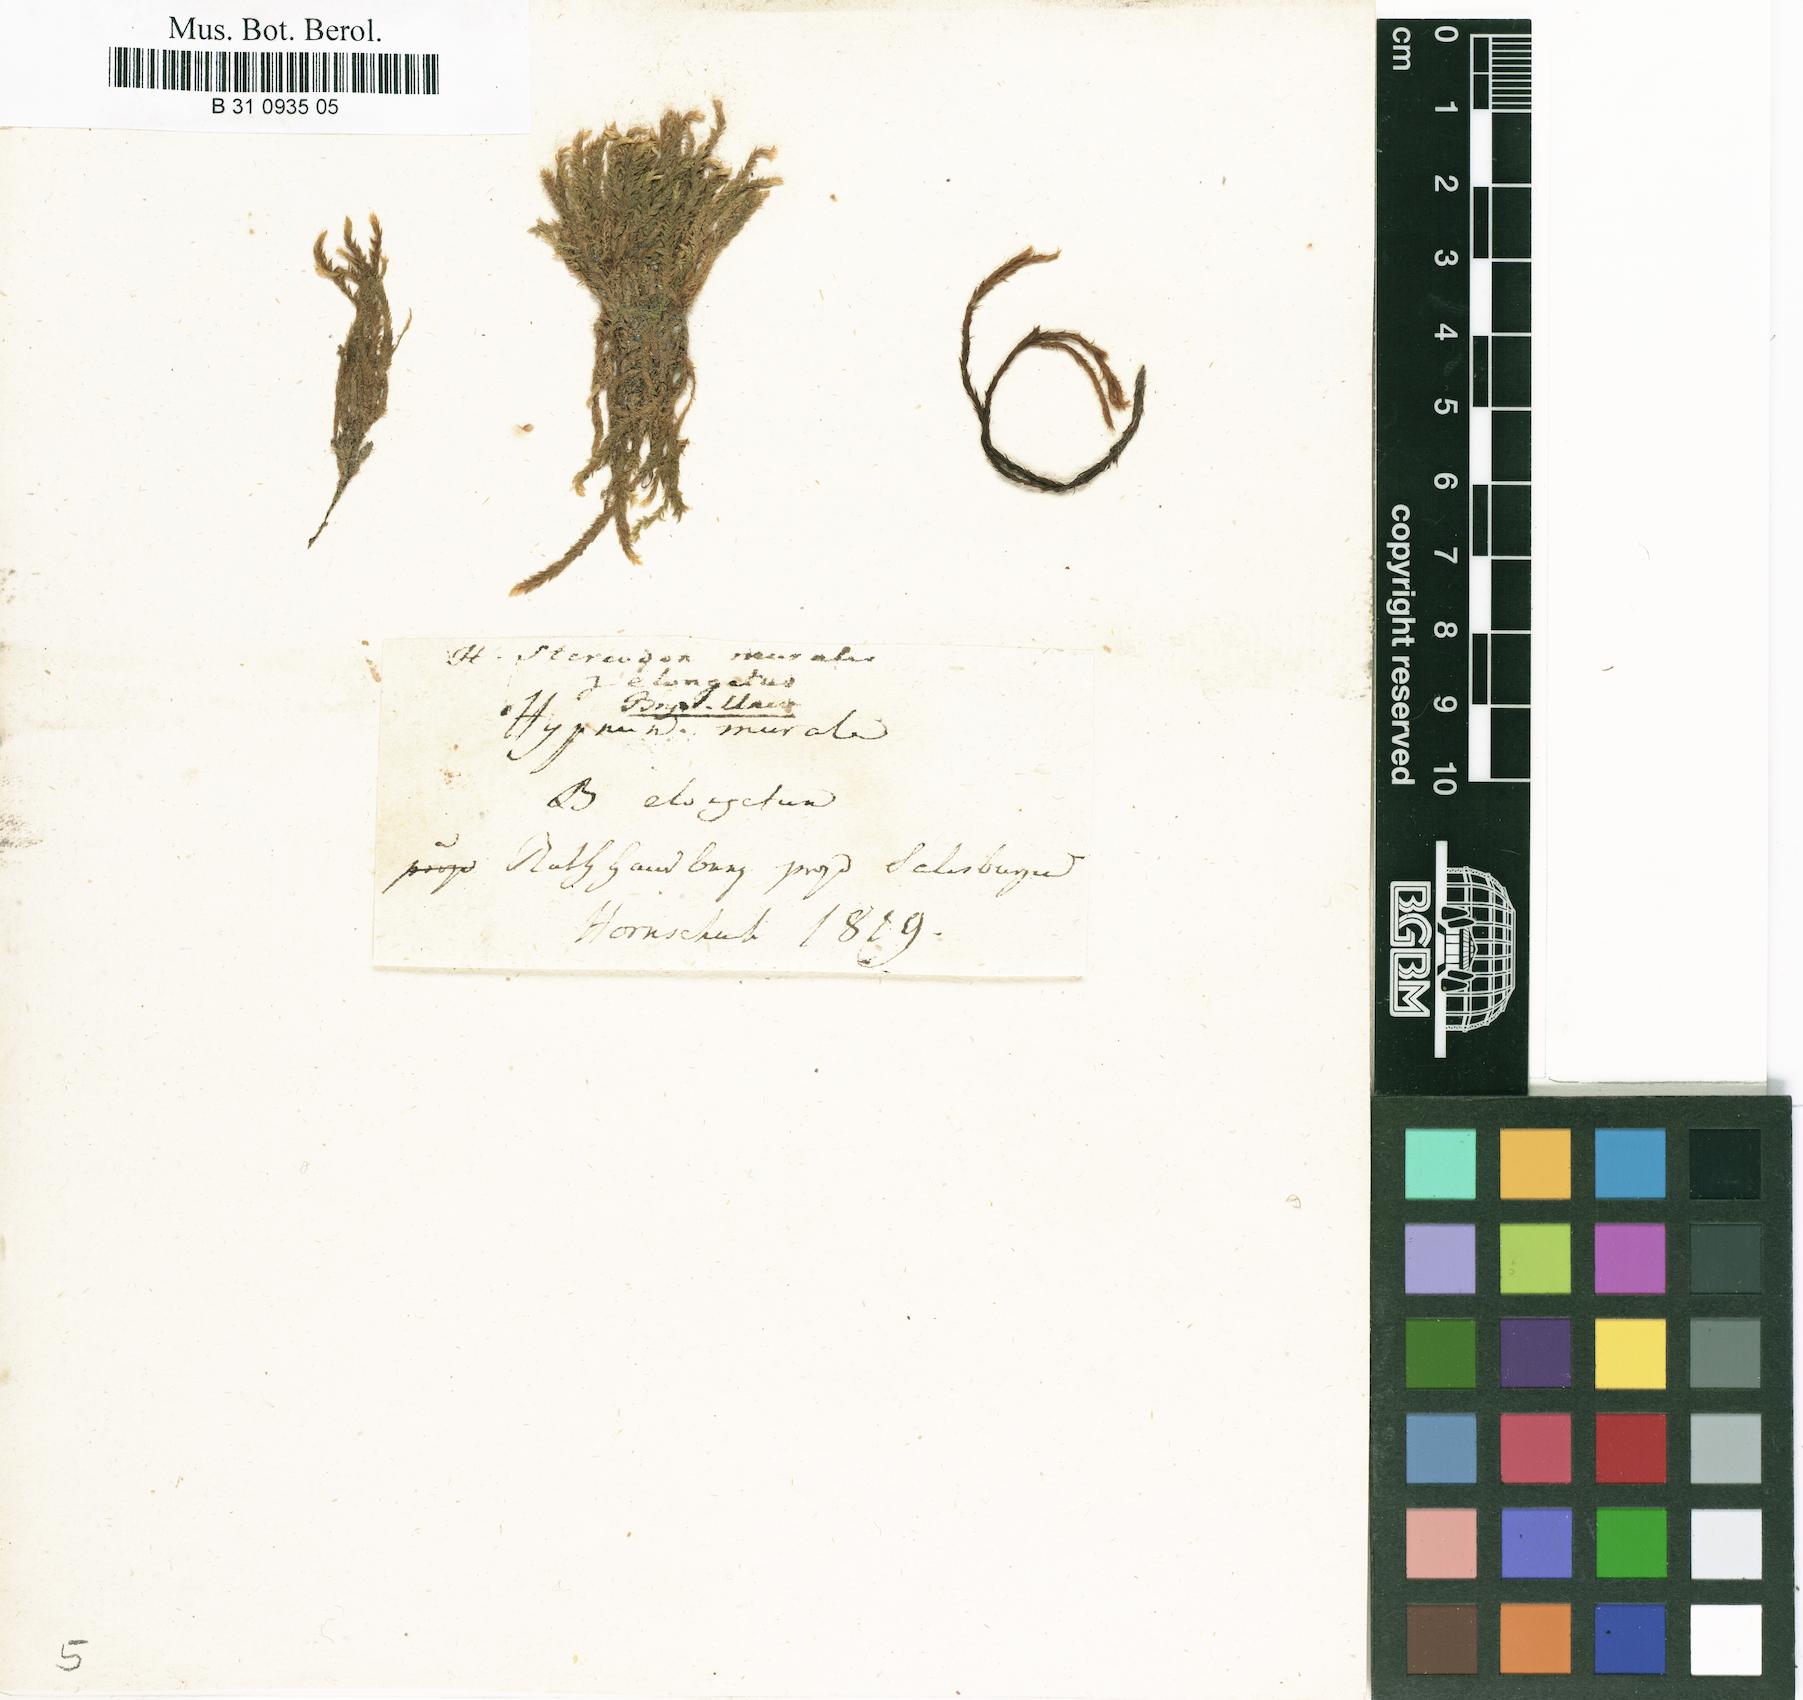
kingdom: Plantae
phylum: Bryophyta
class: Bryopsida
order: Hypnales
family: Brachytheciaceae
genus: Rhynchostegium
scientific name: Rhynchostegium murale
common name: Wall feather-moss
